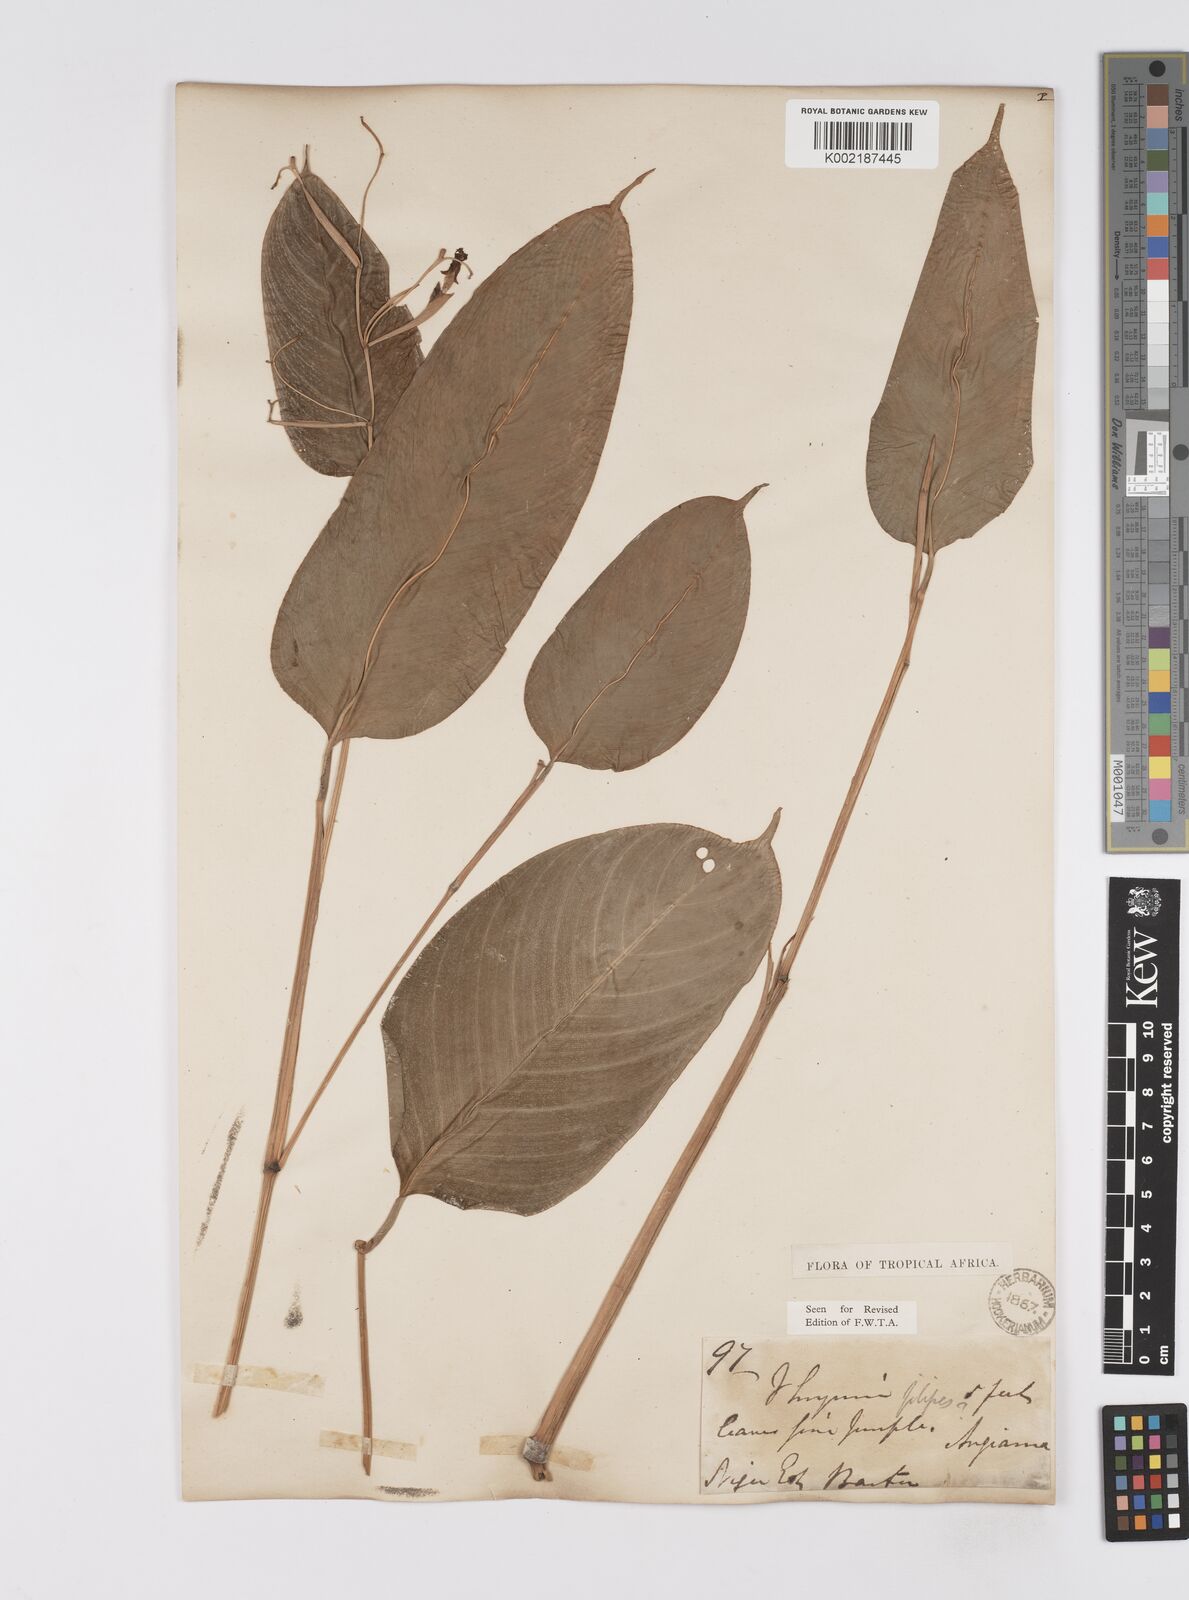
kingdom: Plantae
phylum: Tracheophyta
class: Liliopsida
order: Zingiberales
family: Marantaceae
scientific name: Marantaceae
